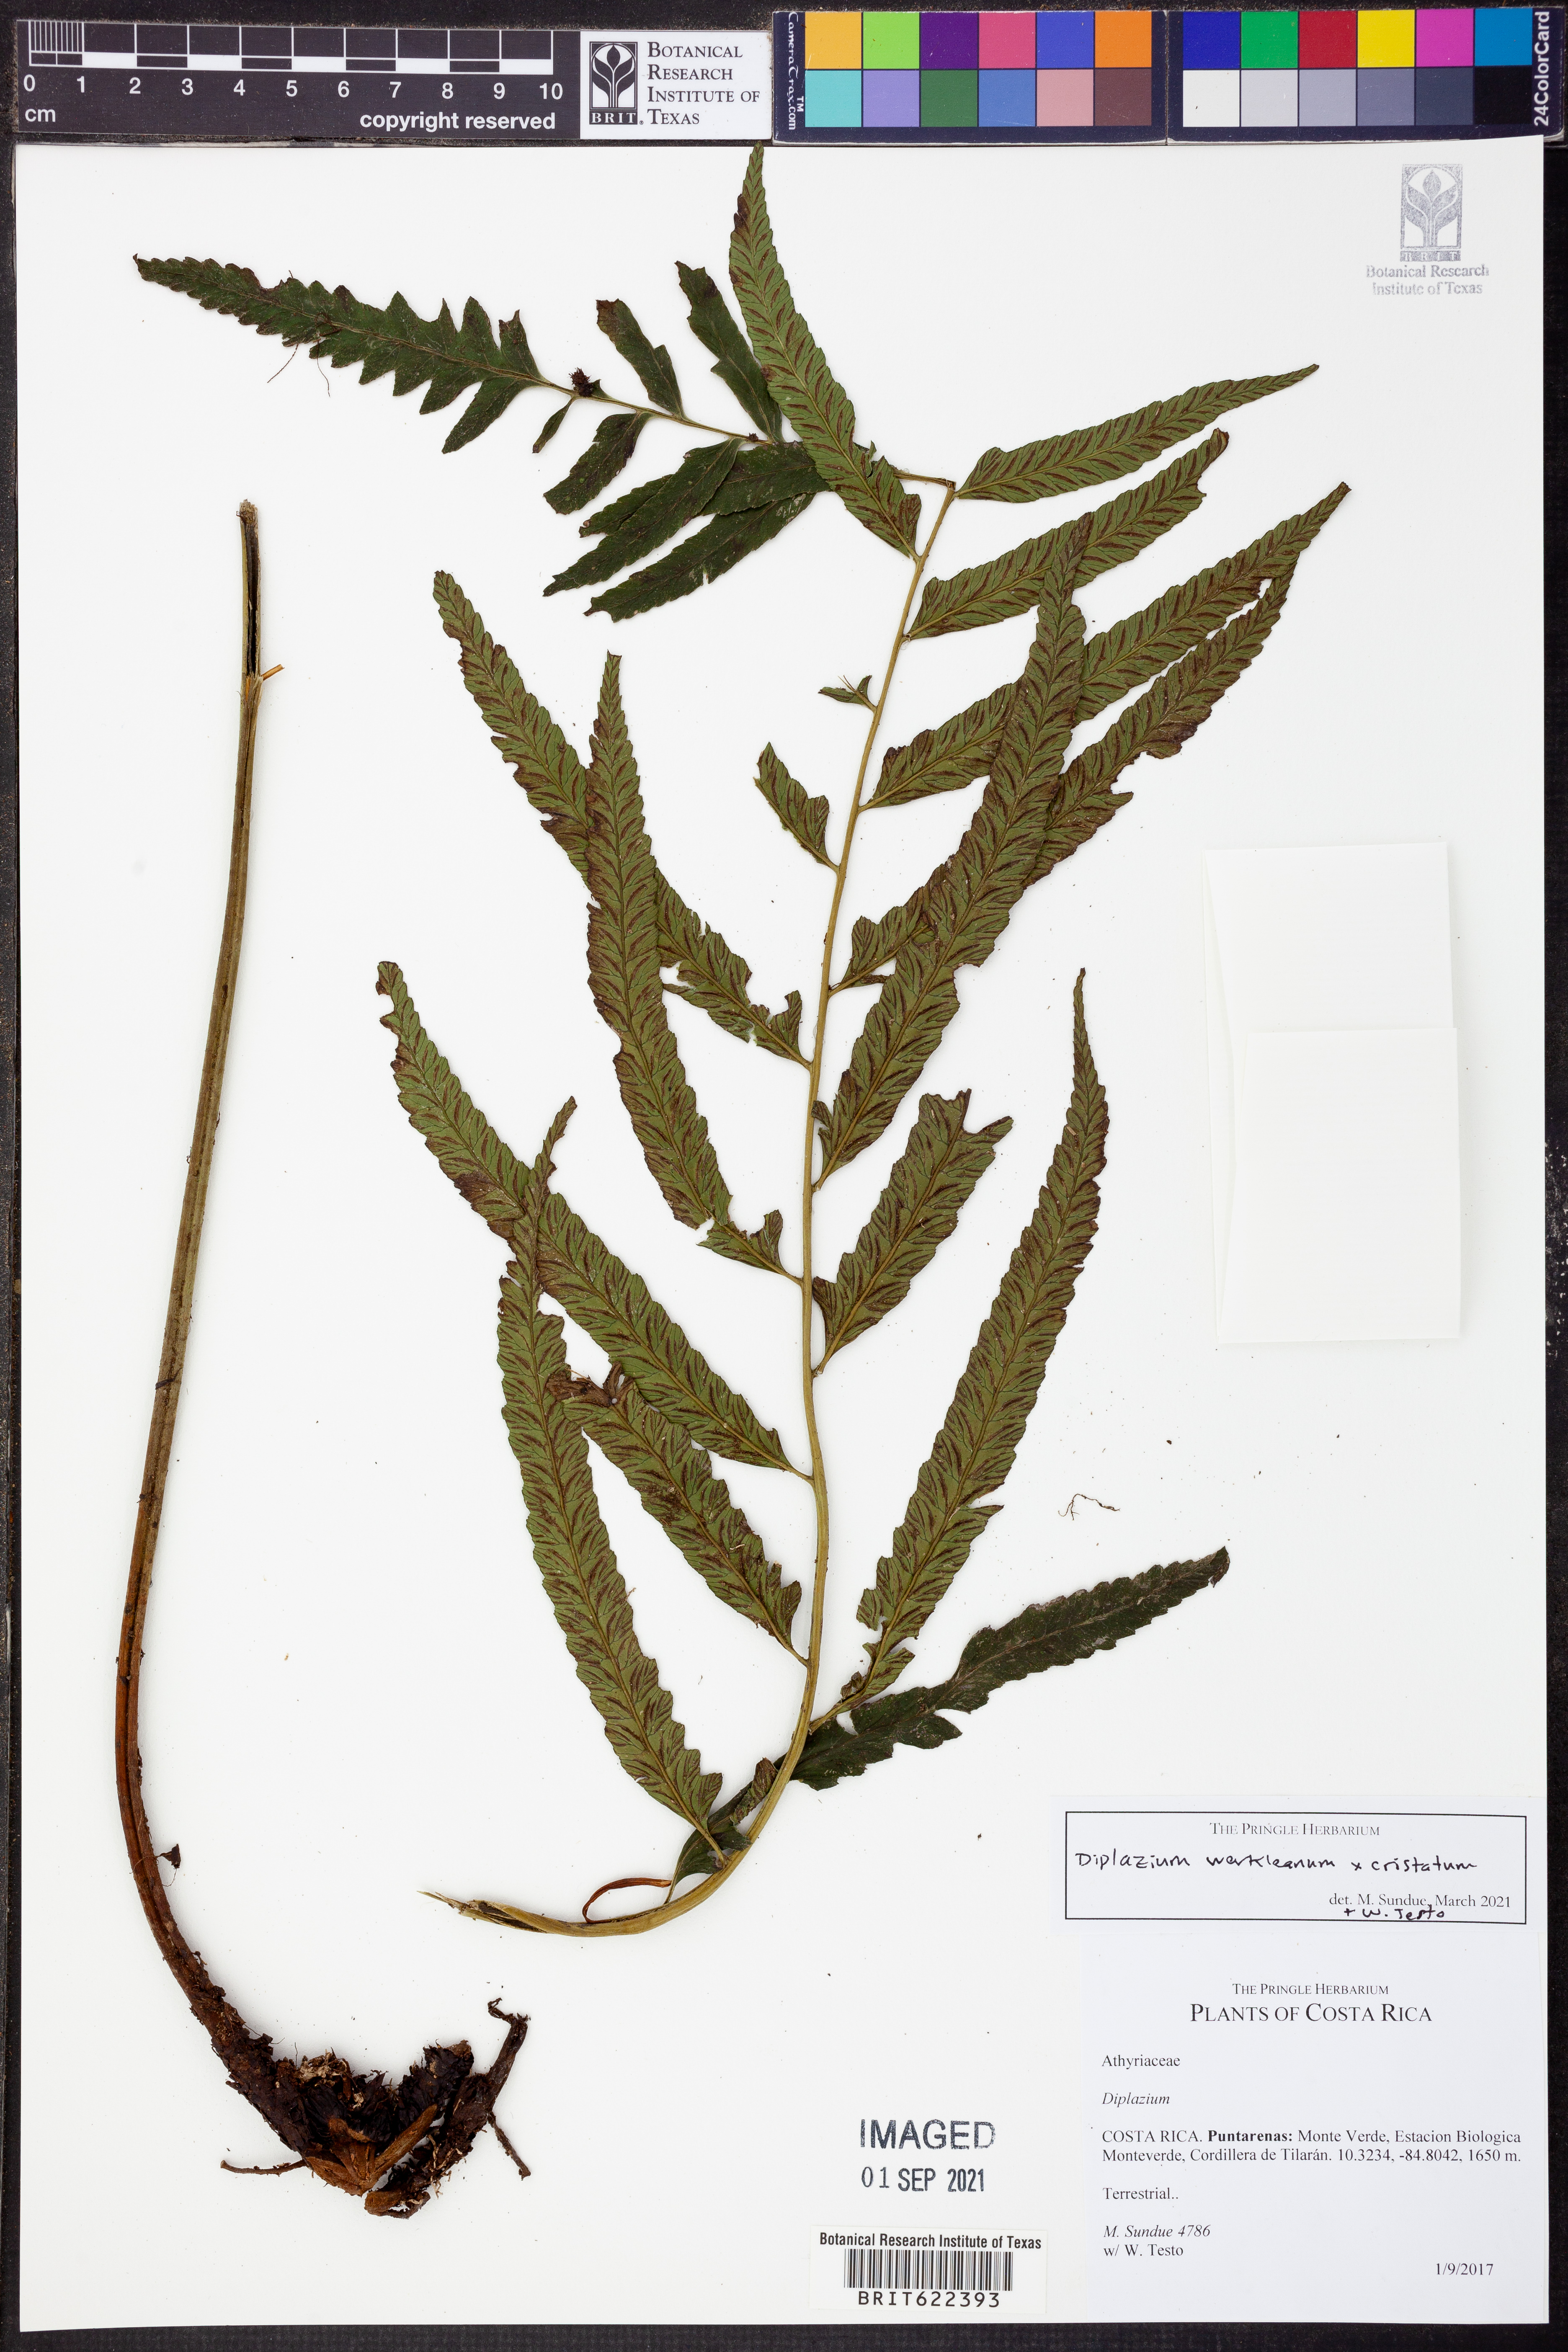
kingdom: Plantae
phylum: Tracheophyta
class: Polypodiopsida
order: Polypodiales
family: Athyriaceae
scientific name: Athyriaceae
